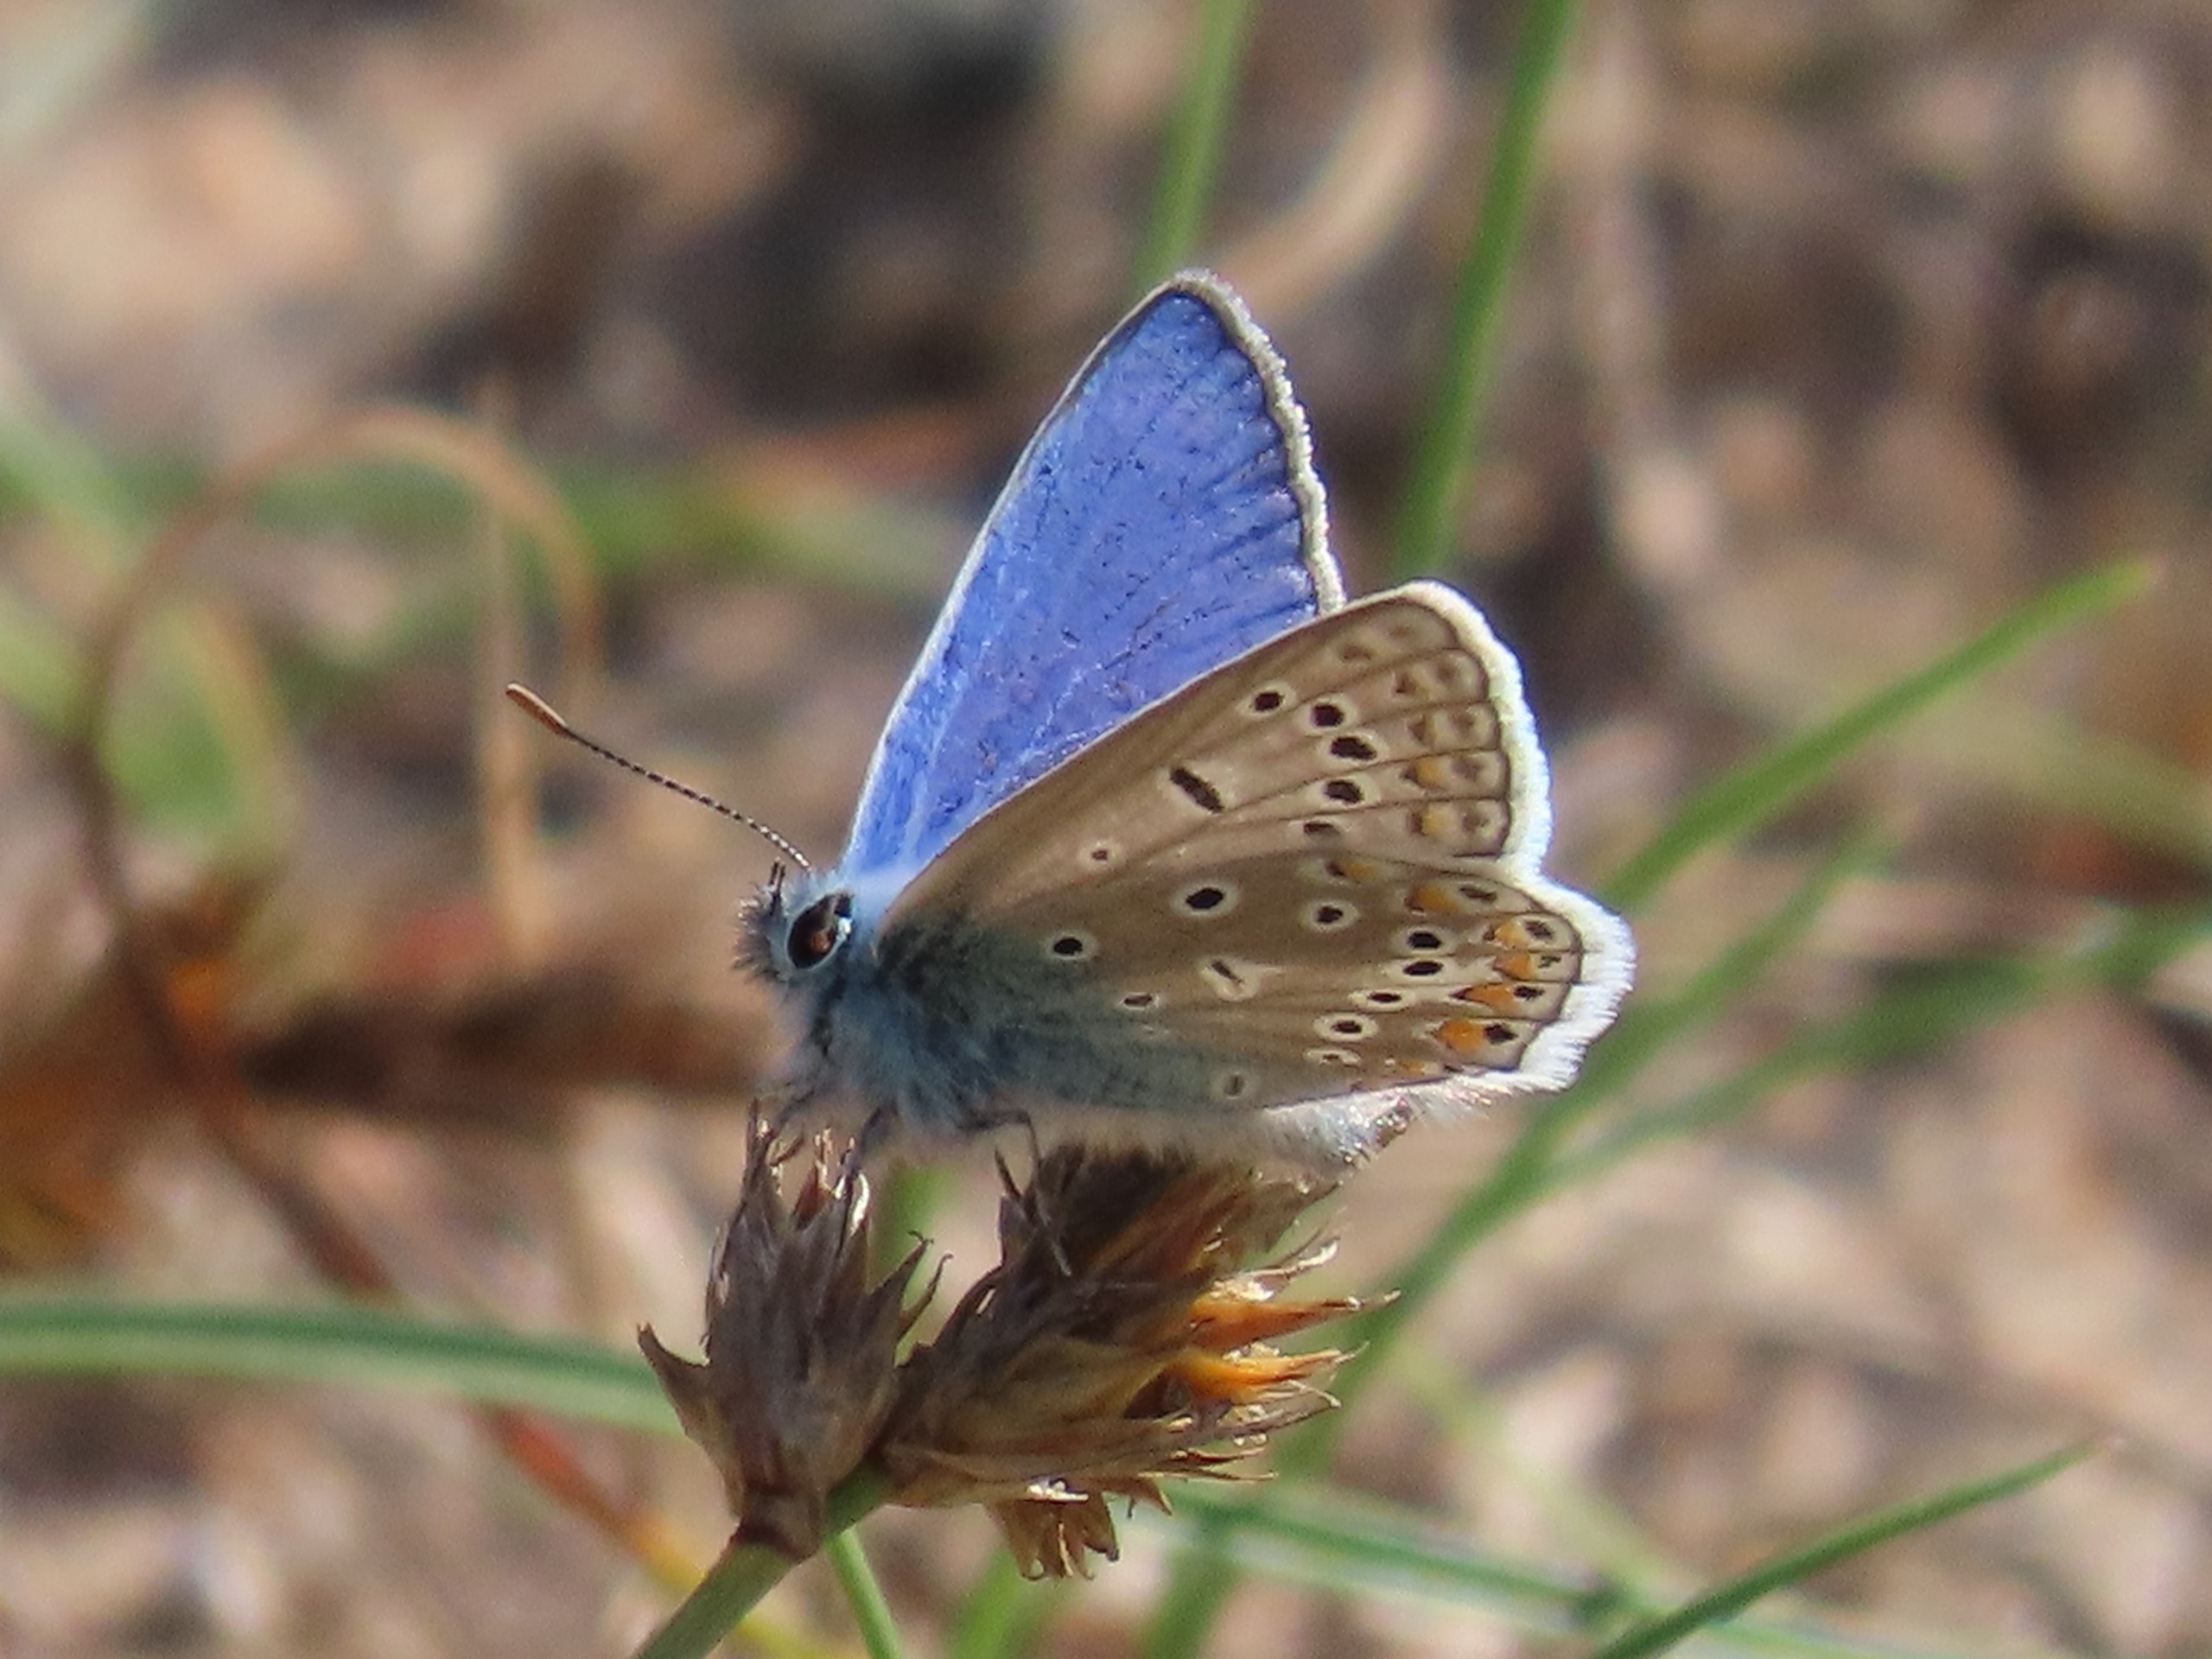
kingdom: Animalia
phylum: Arthropoda
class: Insecta
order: Lepidoptera
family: Lycaenidae
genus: Polyommatus
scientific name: Polyommatus icarus
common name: Almindelig blåfugl
